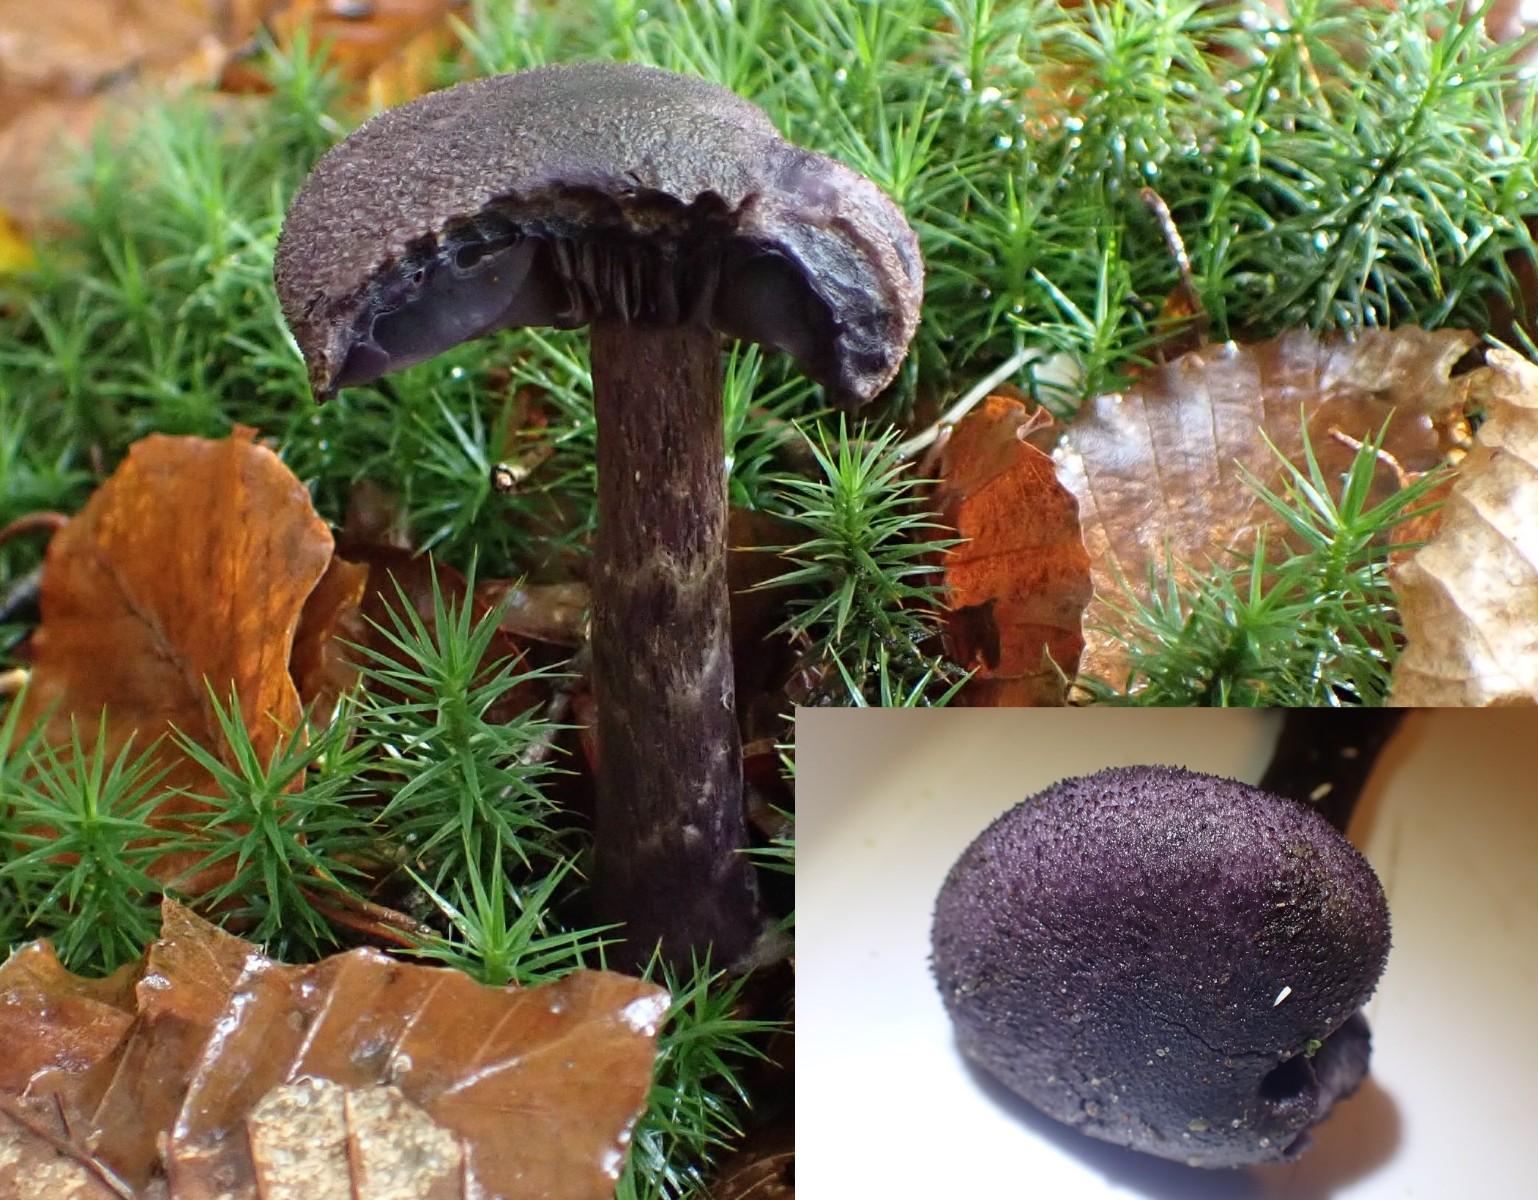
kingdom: Fungi
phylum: Basidiomycota
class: Agaricomycetes
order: Agaricales
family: Cortinariaceae
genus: Cortinarius
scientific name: Cortinarius violaceus
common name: mørkviolet slørhat
